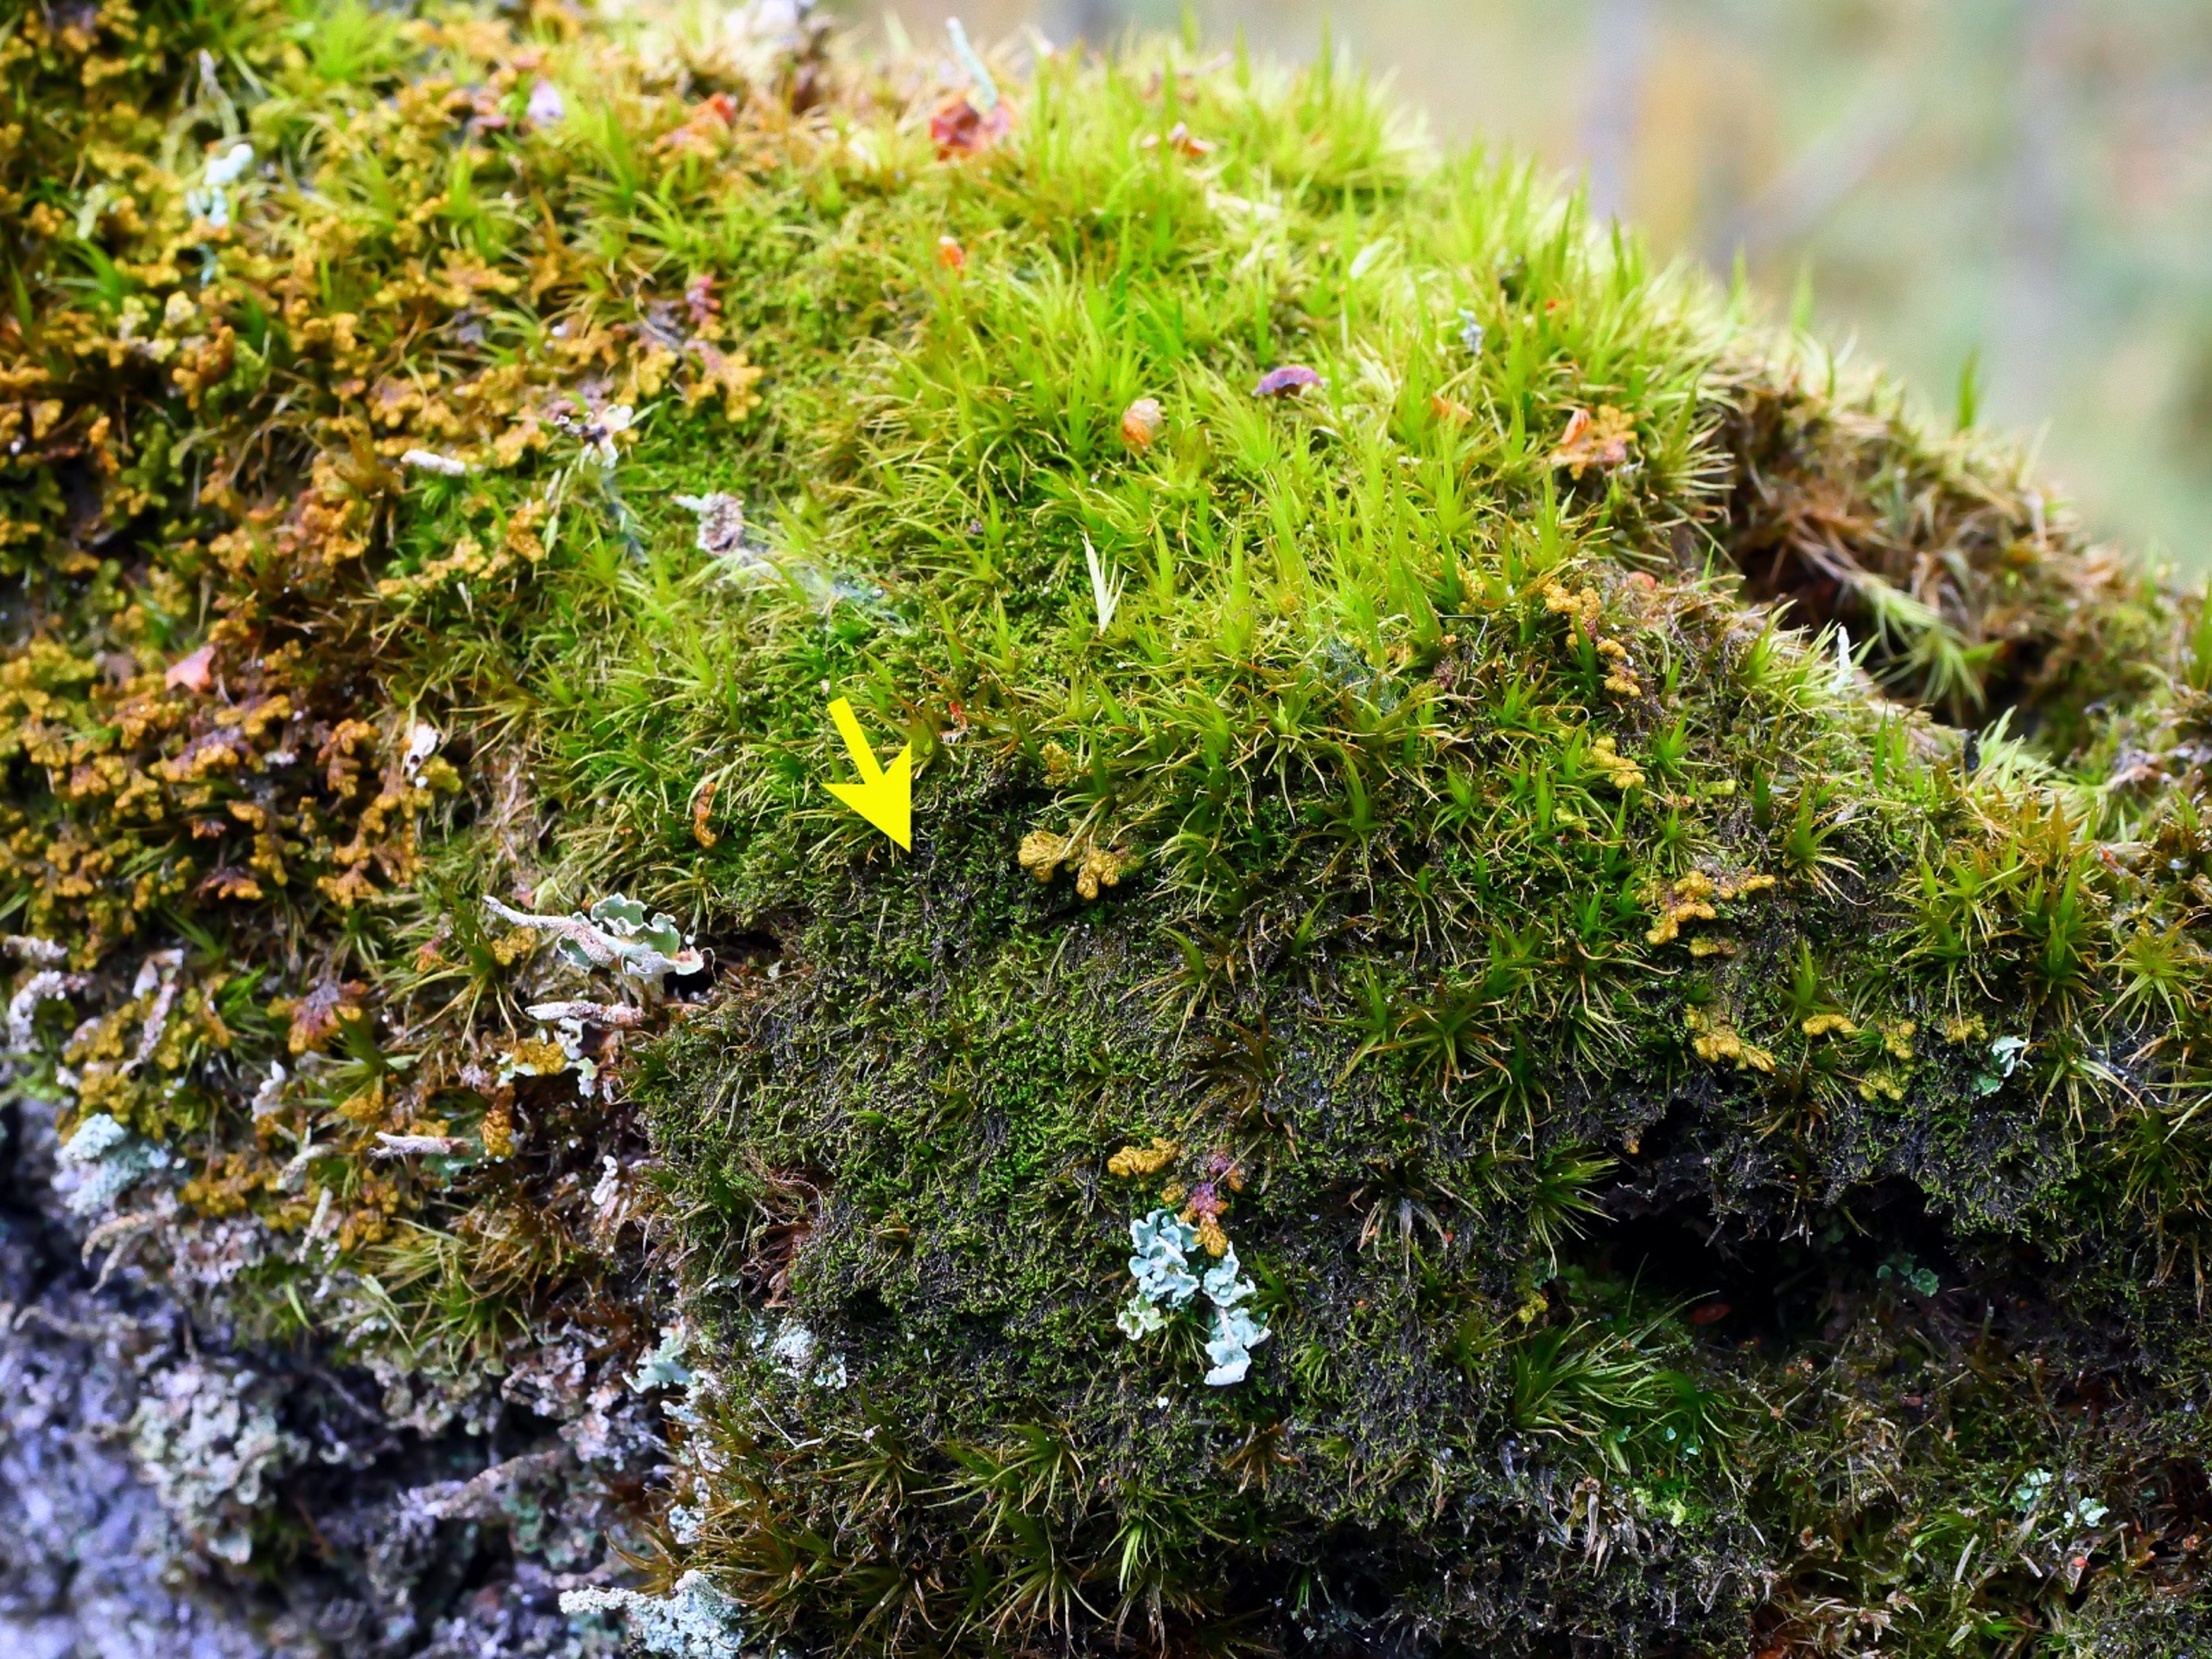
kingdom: Plantae
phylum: Marchantiophyta
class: Jungermanniopsida
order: Jungermanniales
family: Cephaloziellaceae
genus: Cephaloziella
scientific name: Cephaloziella divaricata
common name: Mørk dværgtråd
